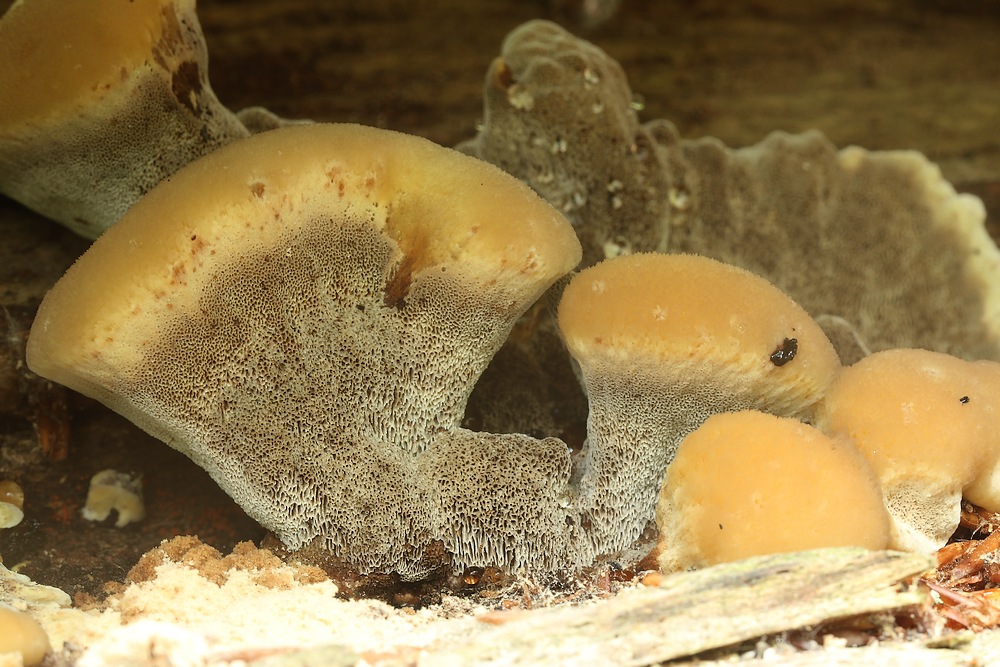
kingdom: Fungi
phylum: Basidiomycota
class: Agaricomycetes
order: Hymenochaetales
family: Hymenochaetaceae
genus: Mensularia
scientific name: Mensularia nodulosa
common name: bøge-spejlporesvamp
